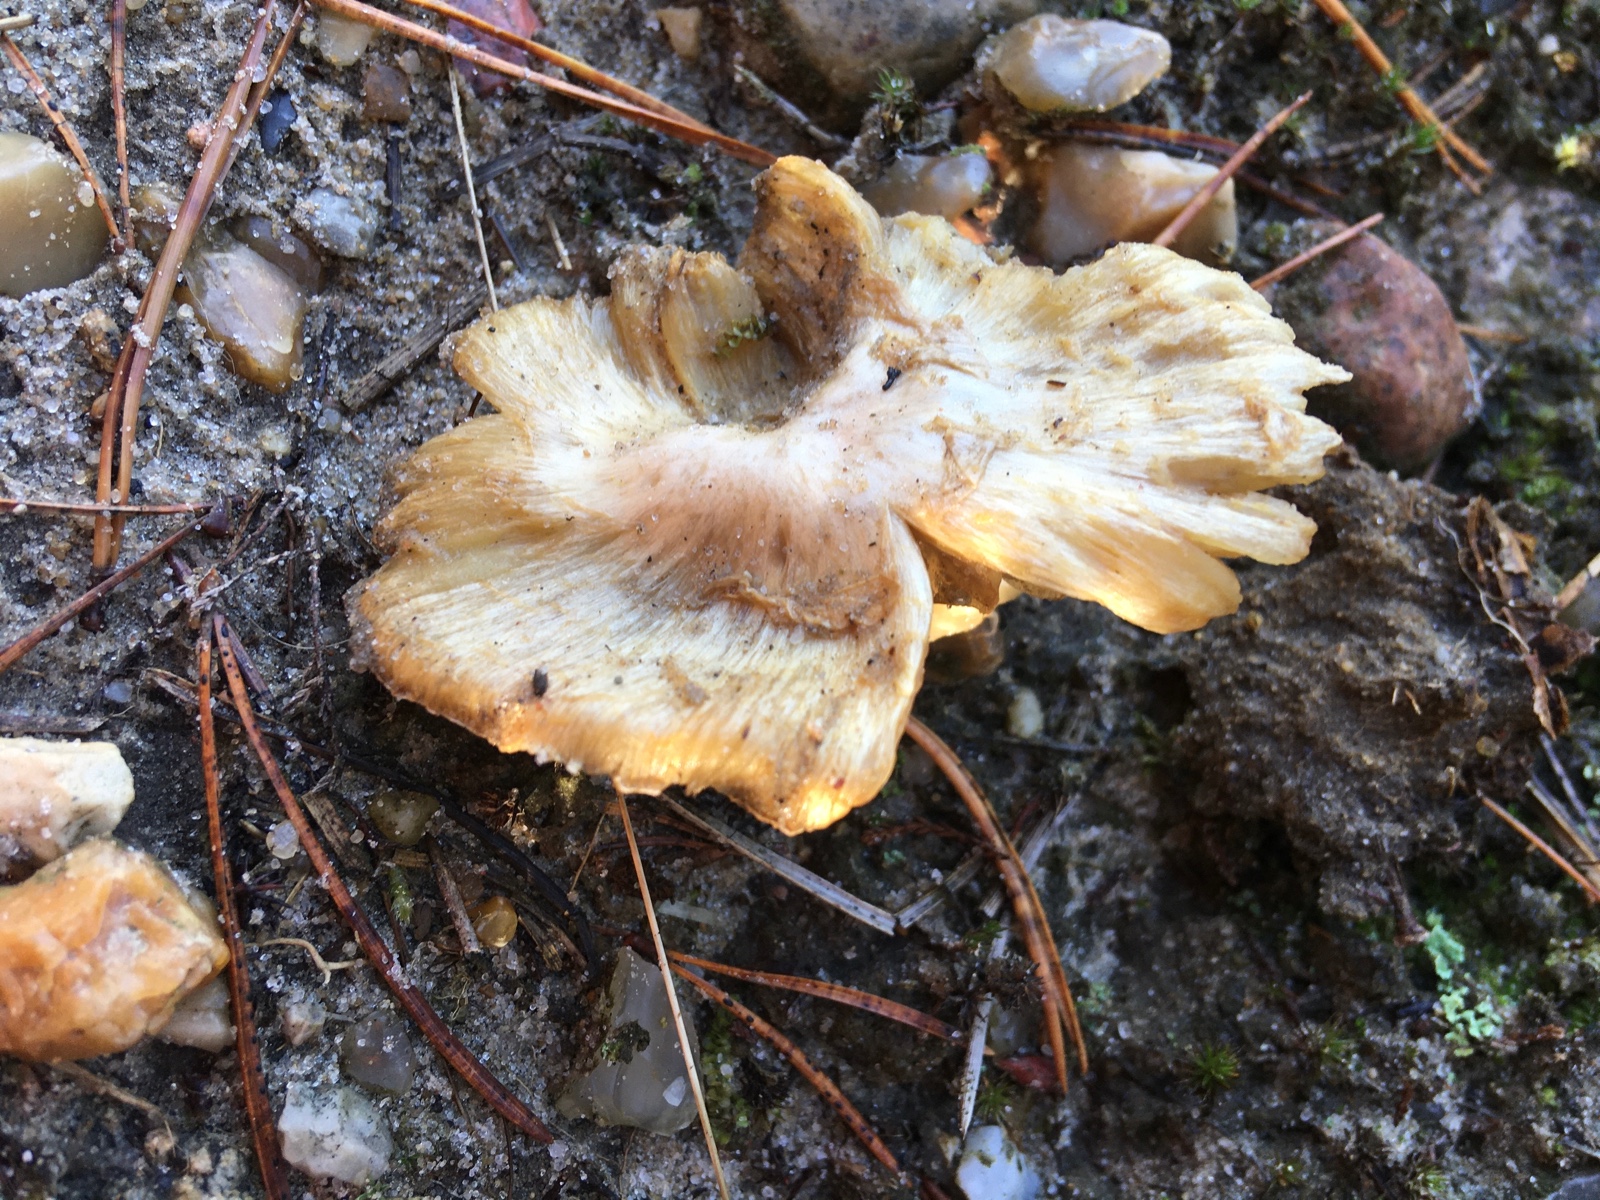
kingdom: Fungi
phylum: Basidiomycota
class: Agaricomycetes
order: Agaricales
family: Inocybaceae
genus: Inocybe
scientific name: Inocybe sambucina
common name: hyldehvid trævlhat
